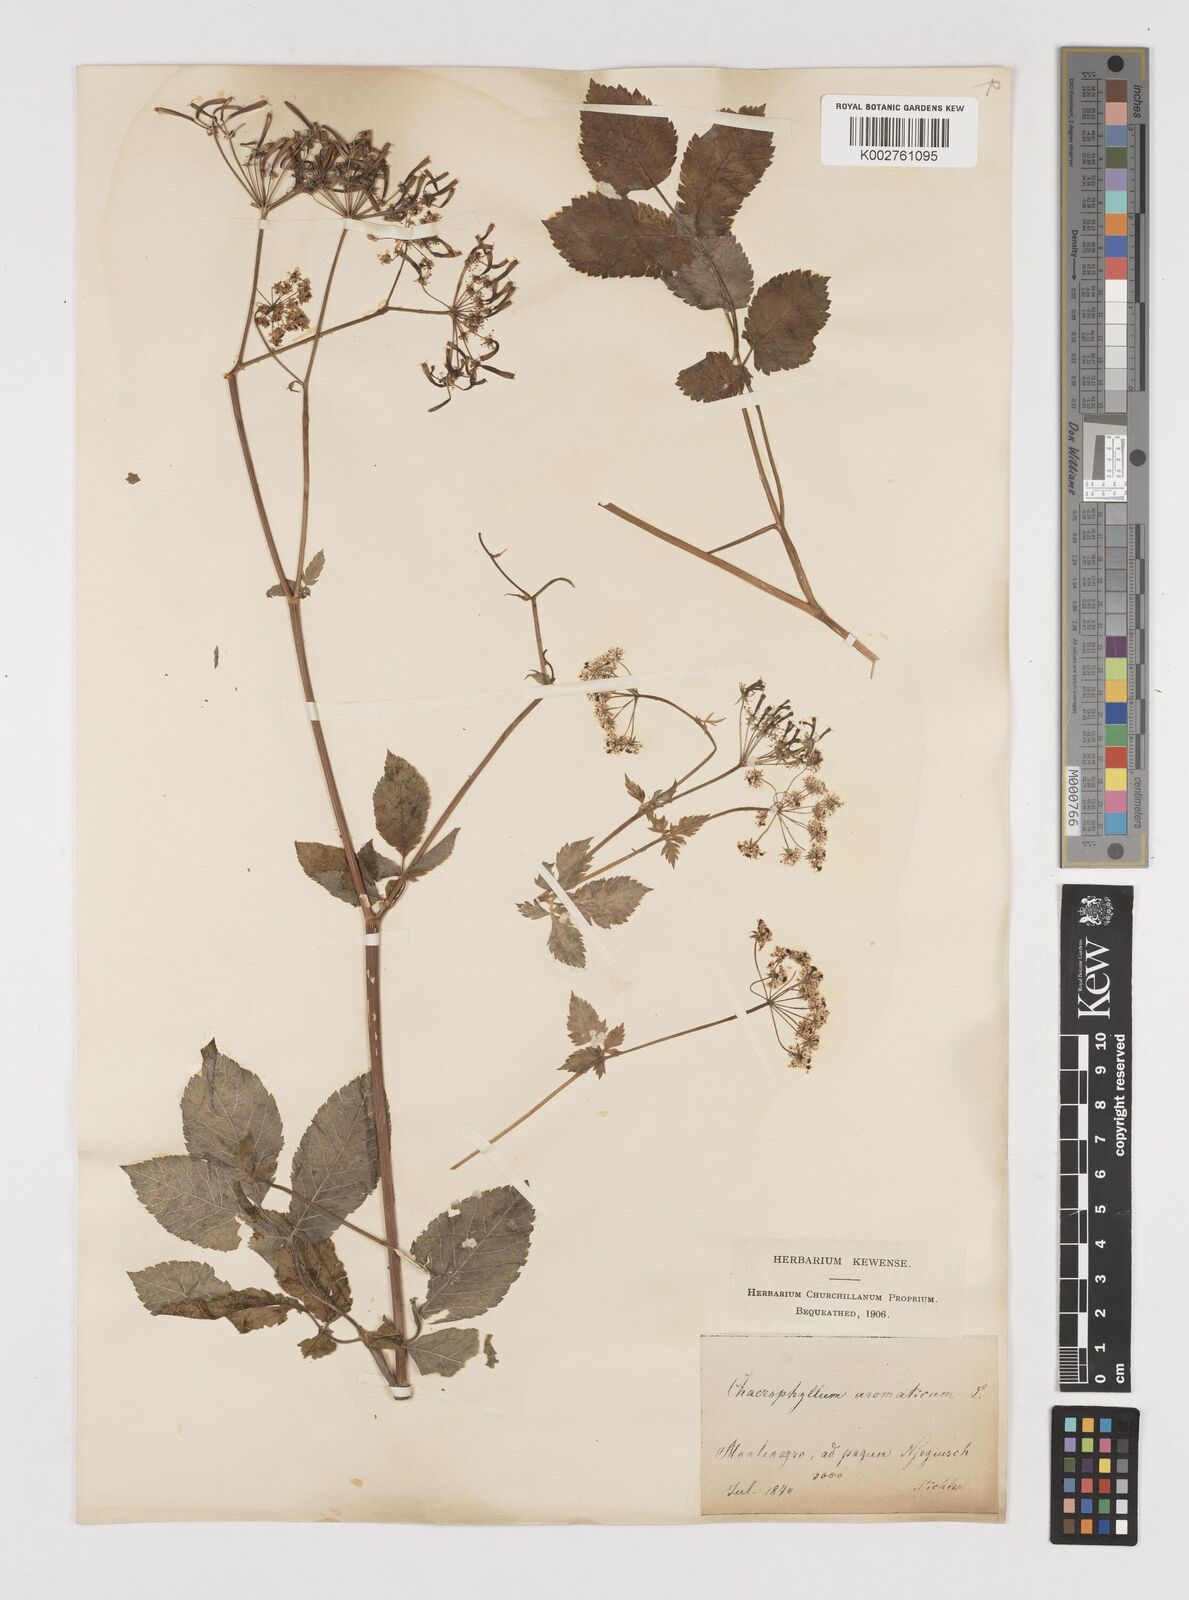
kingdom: Plantae
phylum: Tracheophyta
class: Magnoliopsida
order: Apiales
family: Apiaceae
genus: Chaerophyllum
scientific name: Chaerophyllum aromaticum
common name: Broadleaf chervil
